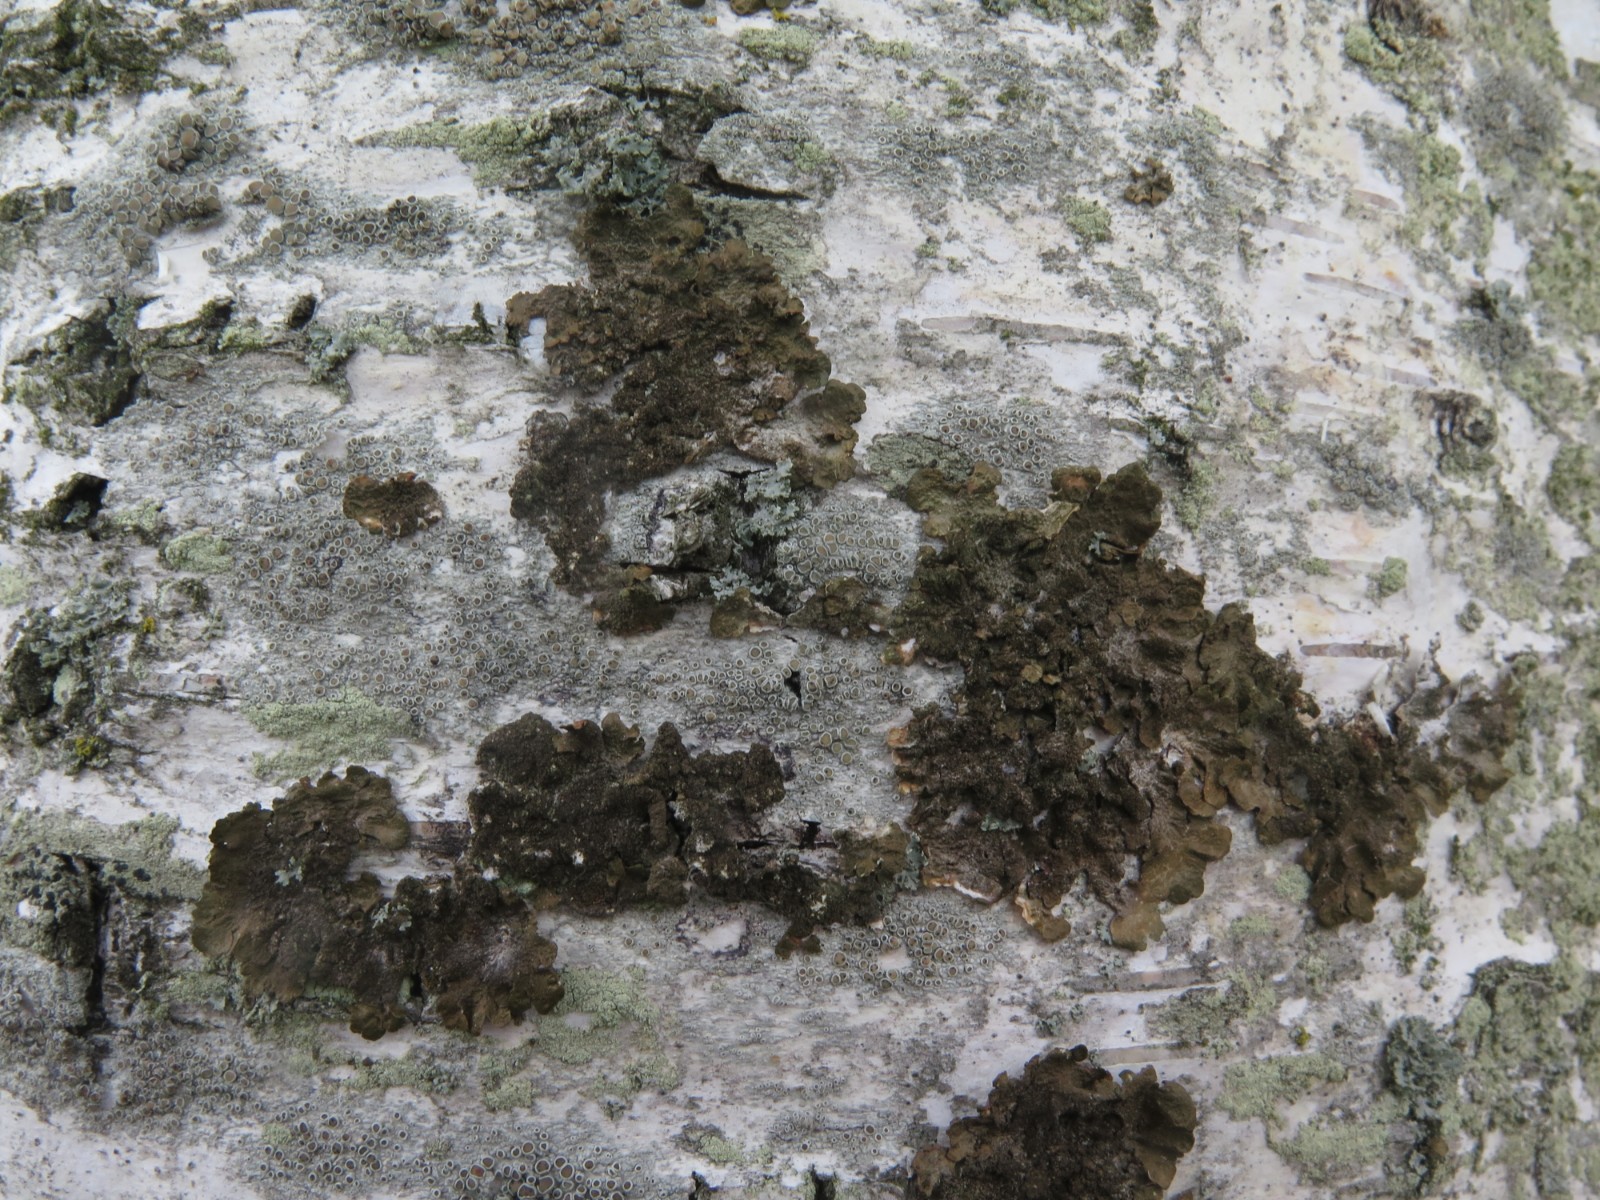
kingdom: Fungi
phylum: Ascomycota
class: Lecanoromycetes
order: Lecanorales
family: Parmeliaceae
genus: Melanelixia
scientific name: Melanelixia subaurifera
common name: guldpudret skållav
